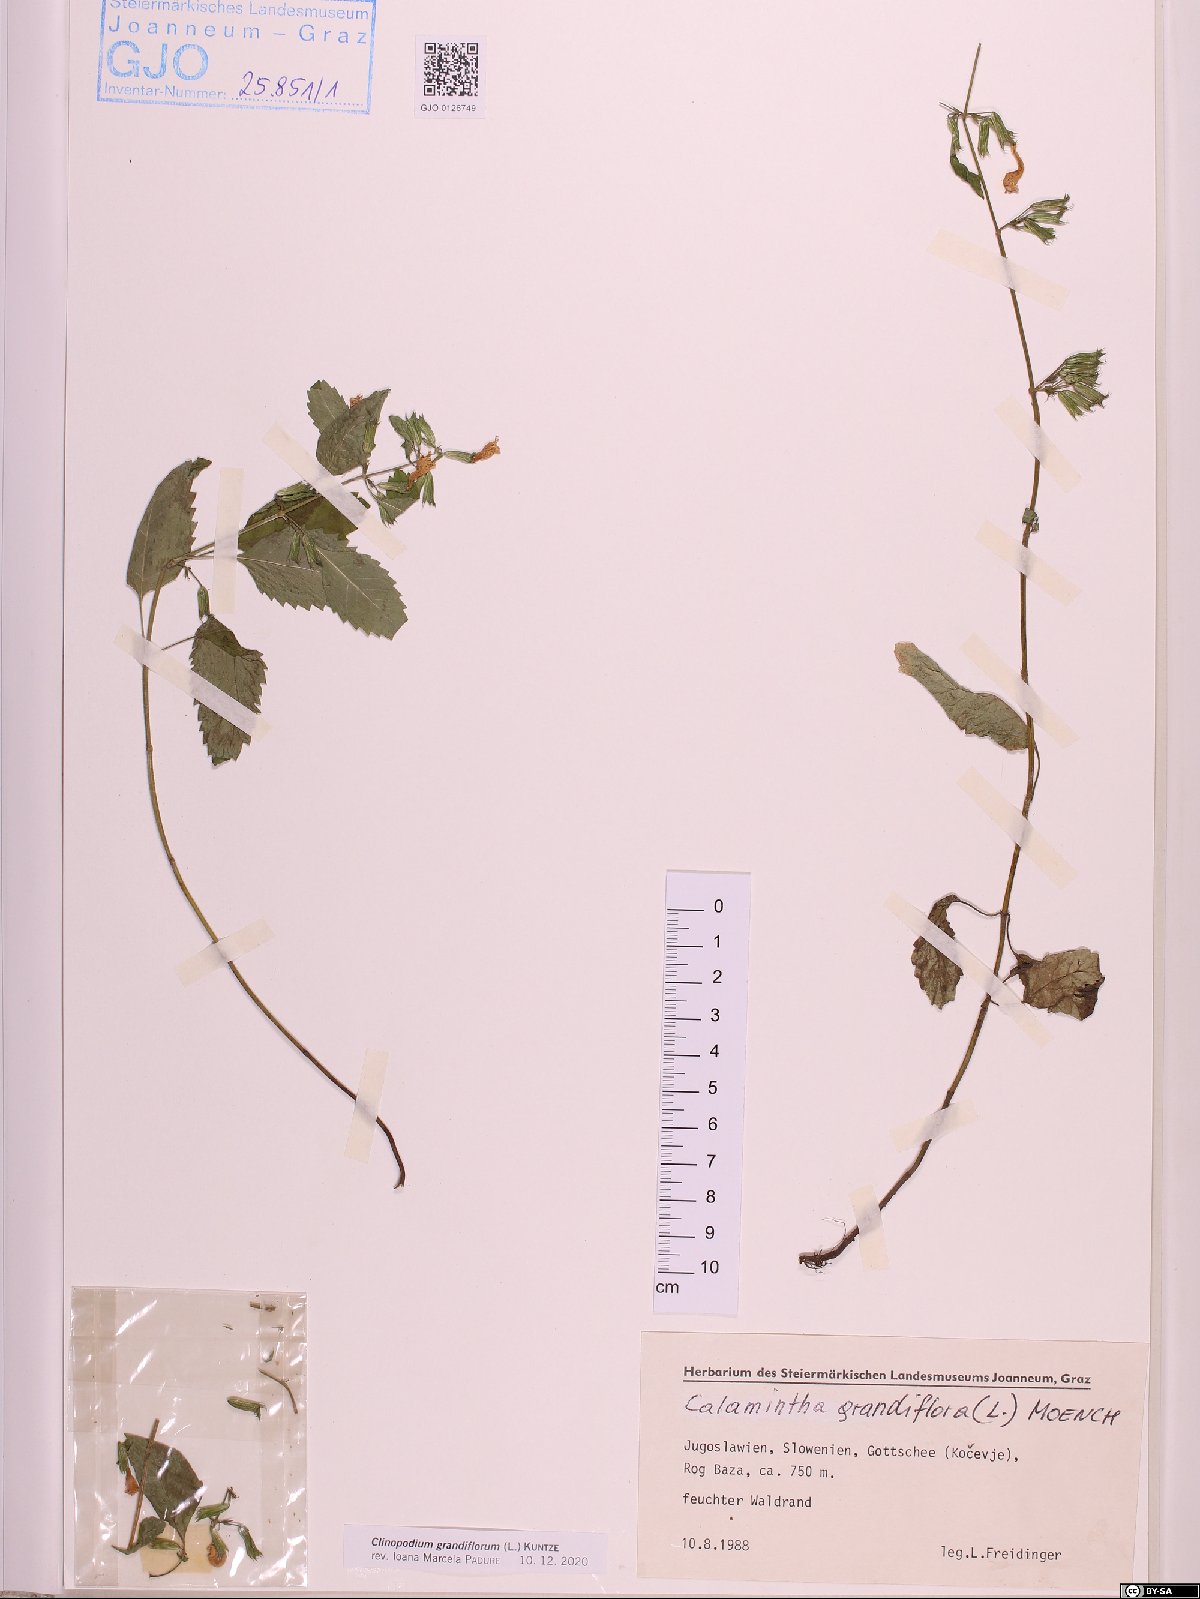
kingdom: Plantae
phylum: Tracheophyta
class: Magnoliopsida
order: Lamiales
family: Lamiaceae
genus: Clinopodium
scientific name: Clinopodium grandiflorum
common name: Greater calamint
